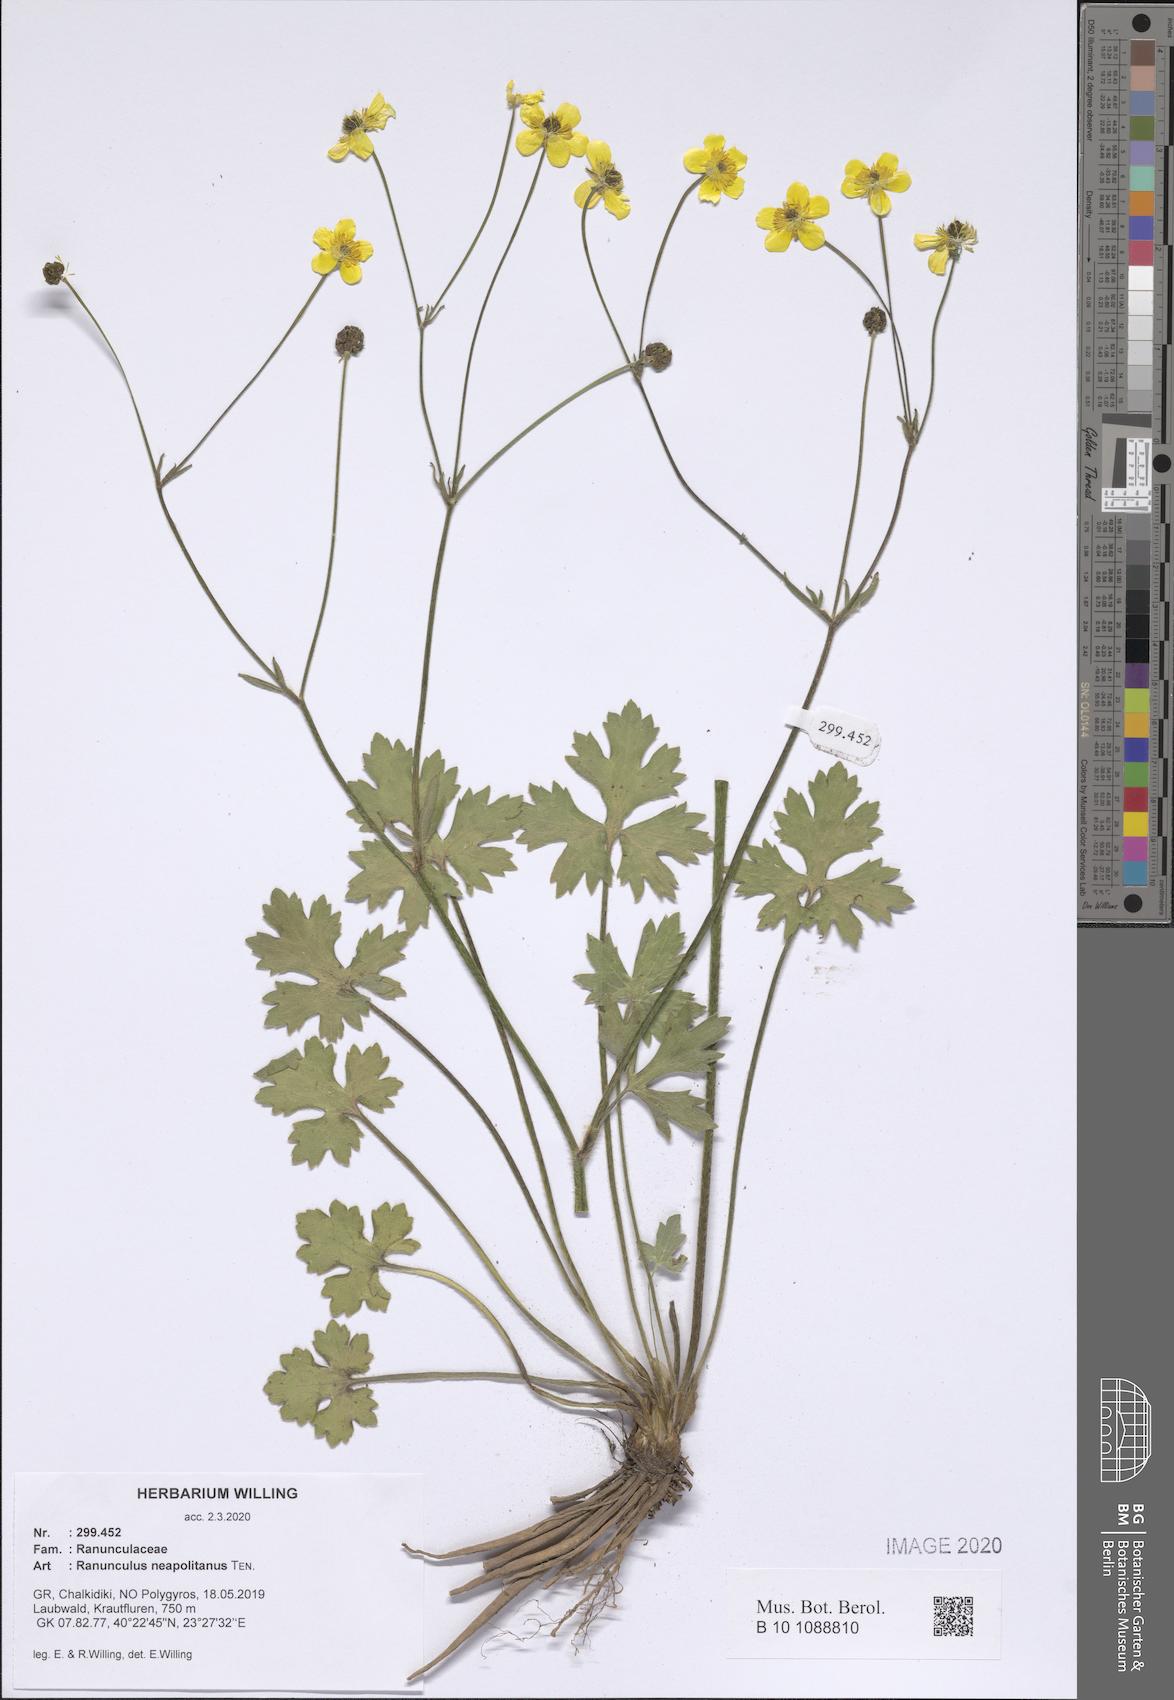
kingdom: Plantae
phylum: Tracheophyta
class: Magnoliopsida
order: Ranunculales
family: Ranunculaceae
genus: Ranunculus
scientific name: Ranunculus neapolitanus
